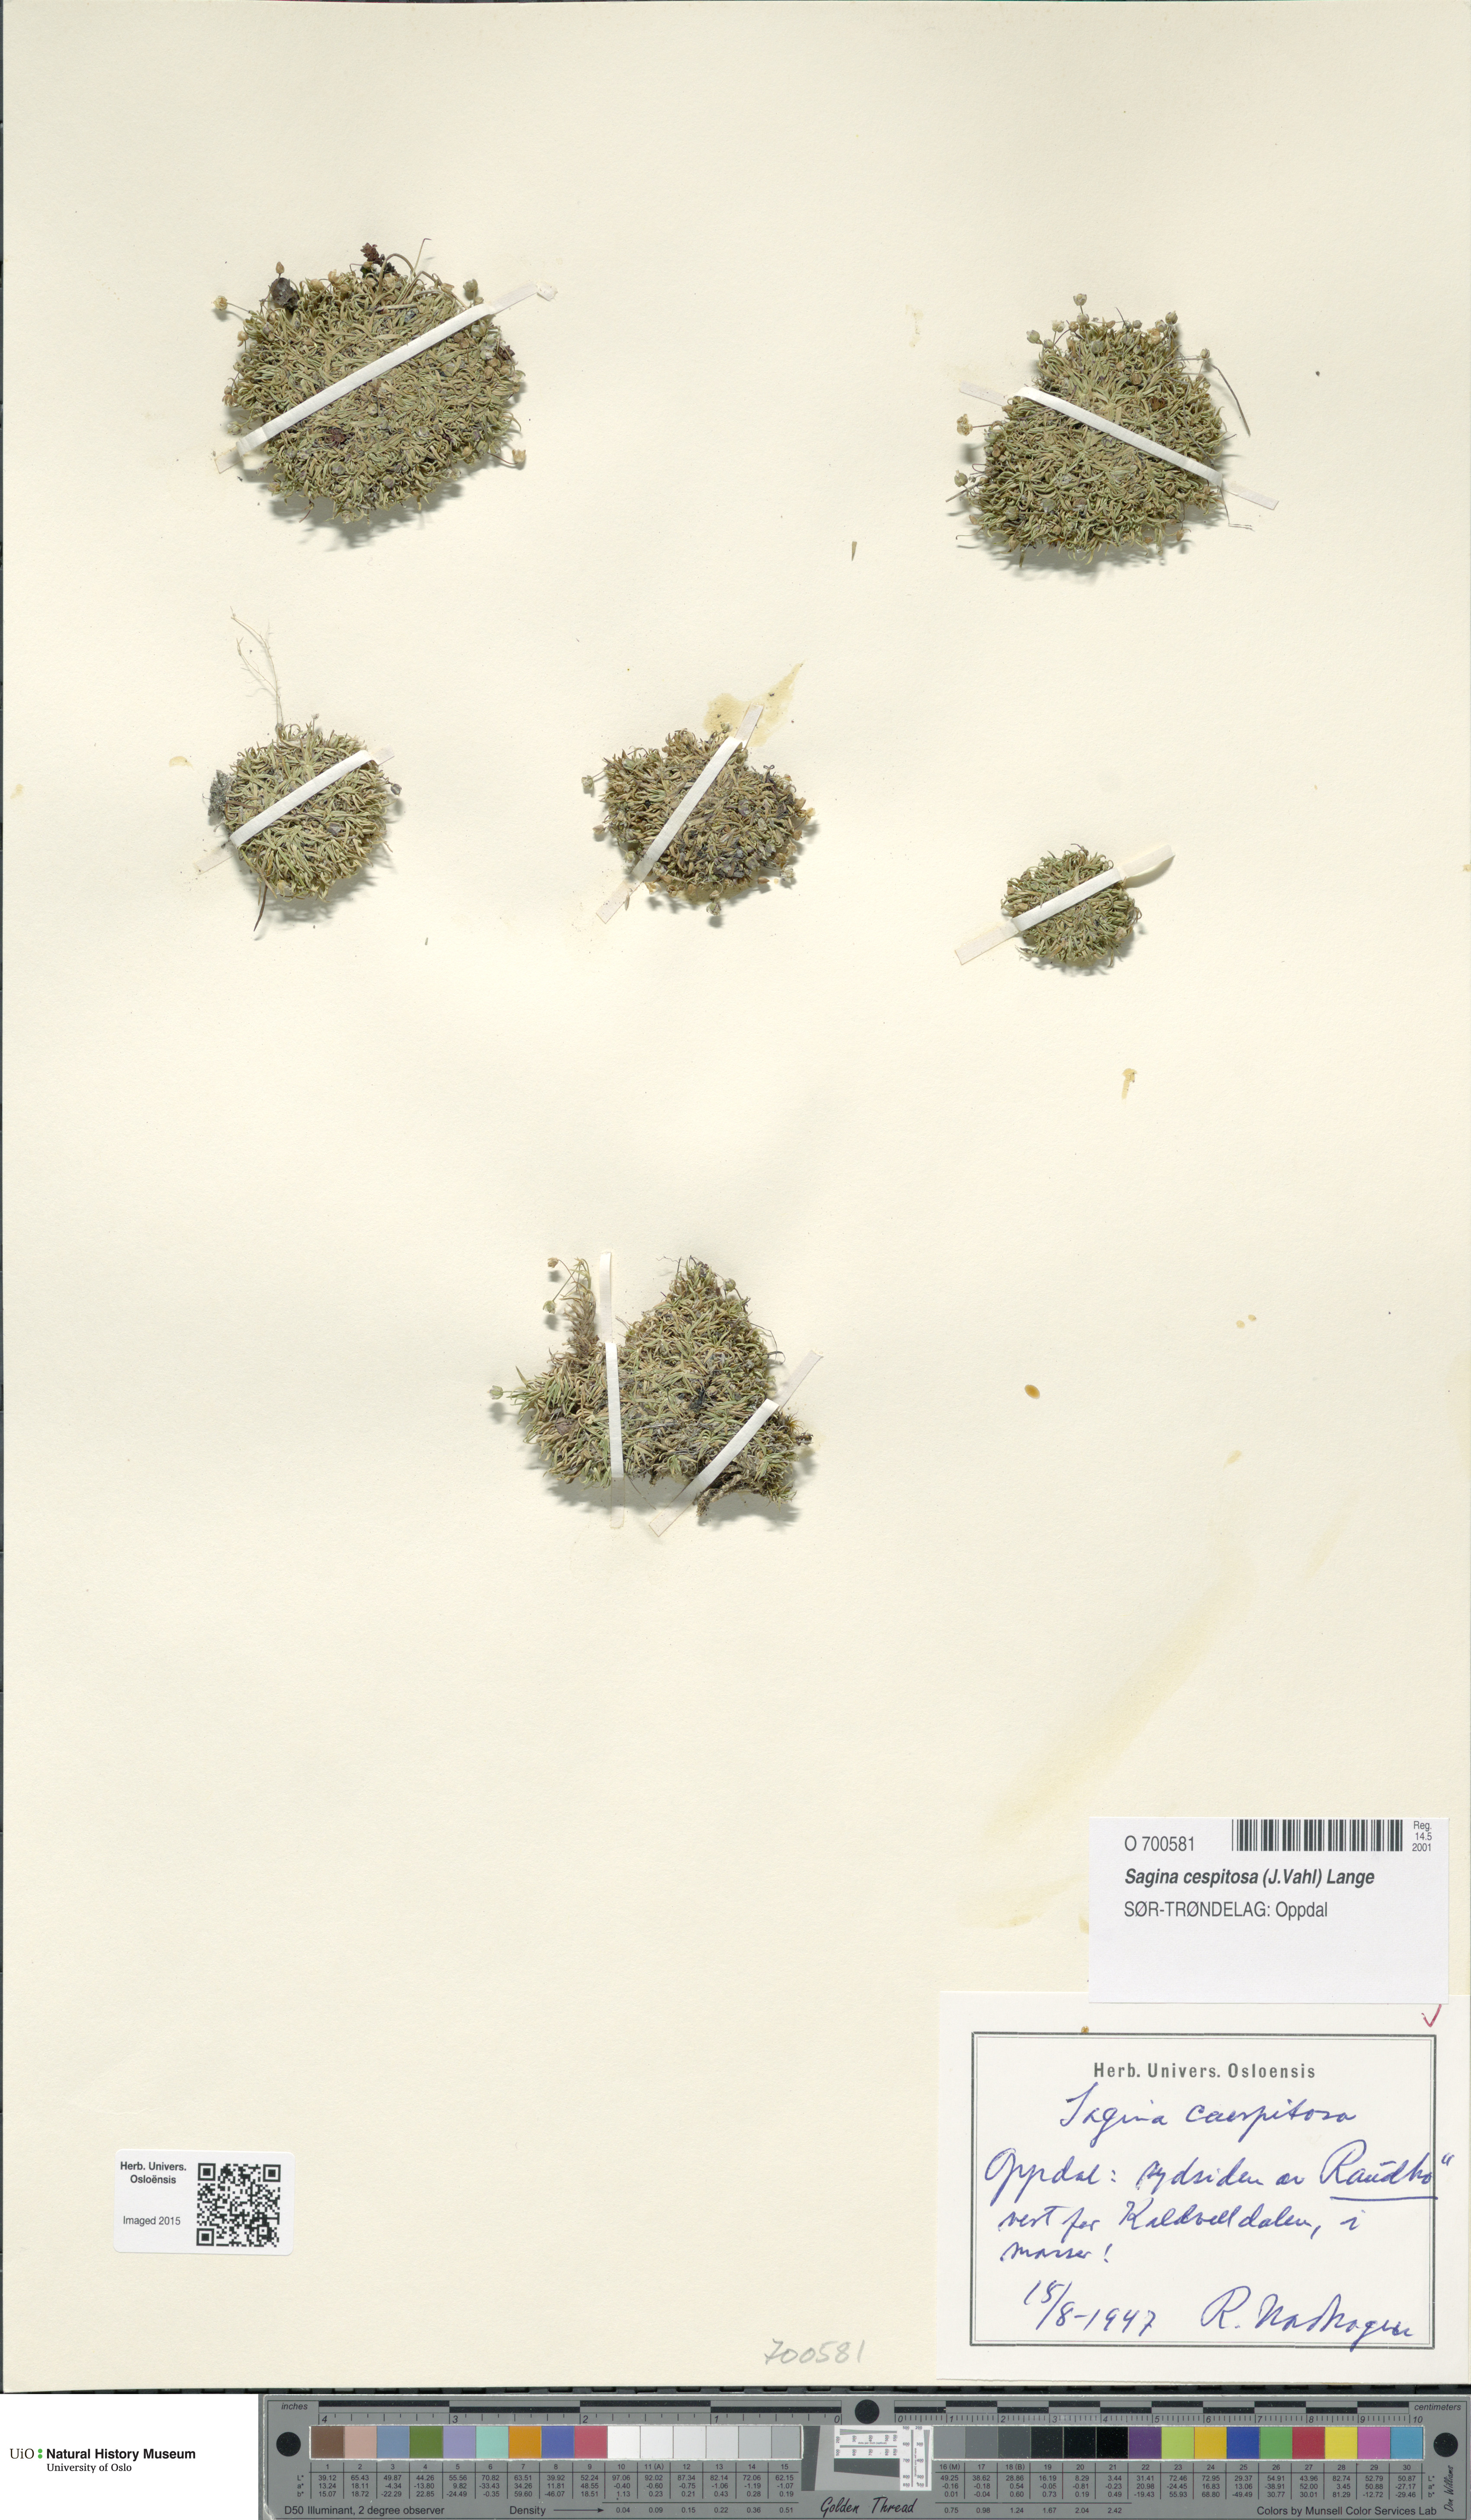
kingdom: Plantae
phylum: Tracheophyta
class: Magnoliopsida
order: Caryophyllales
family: Caryophyllaceae
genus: Sagina
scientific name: Sagina caespitosa
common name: Tufted pearlwort
